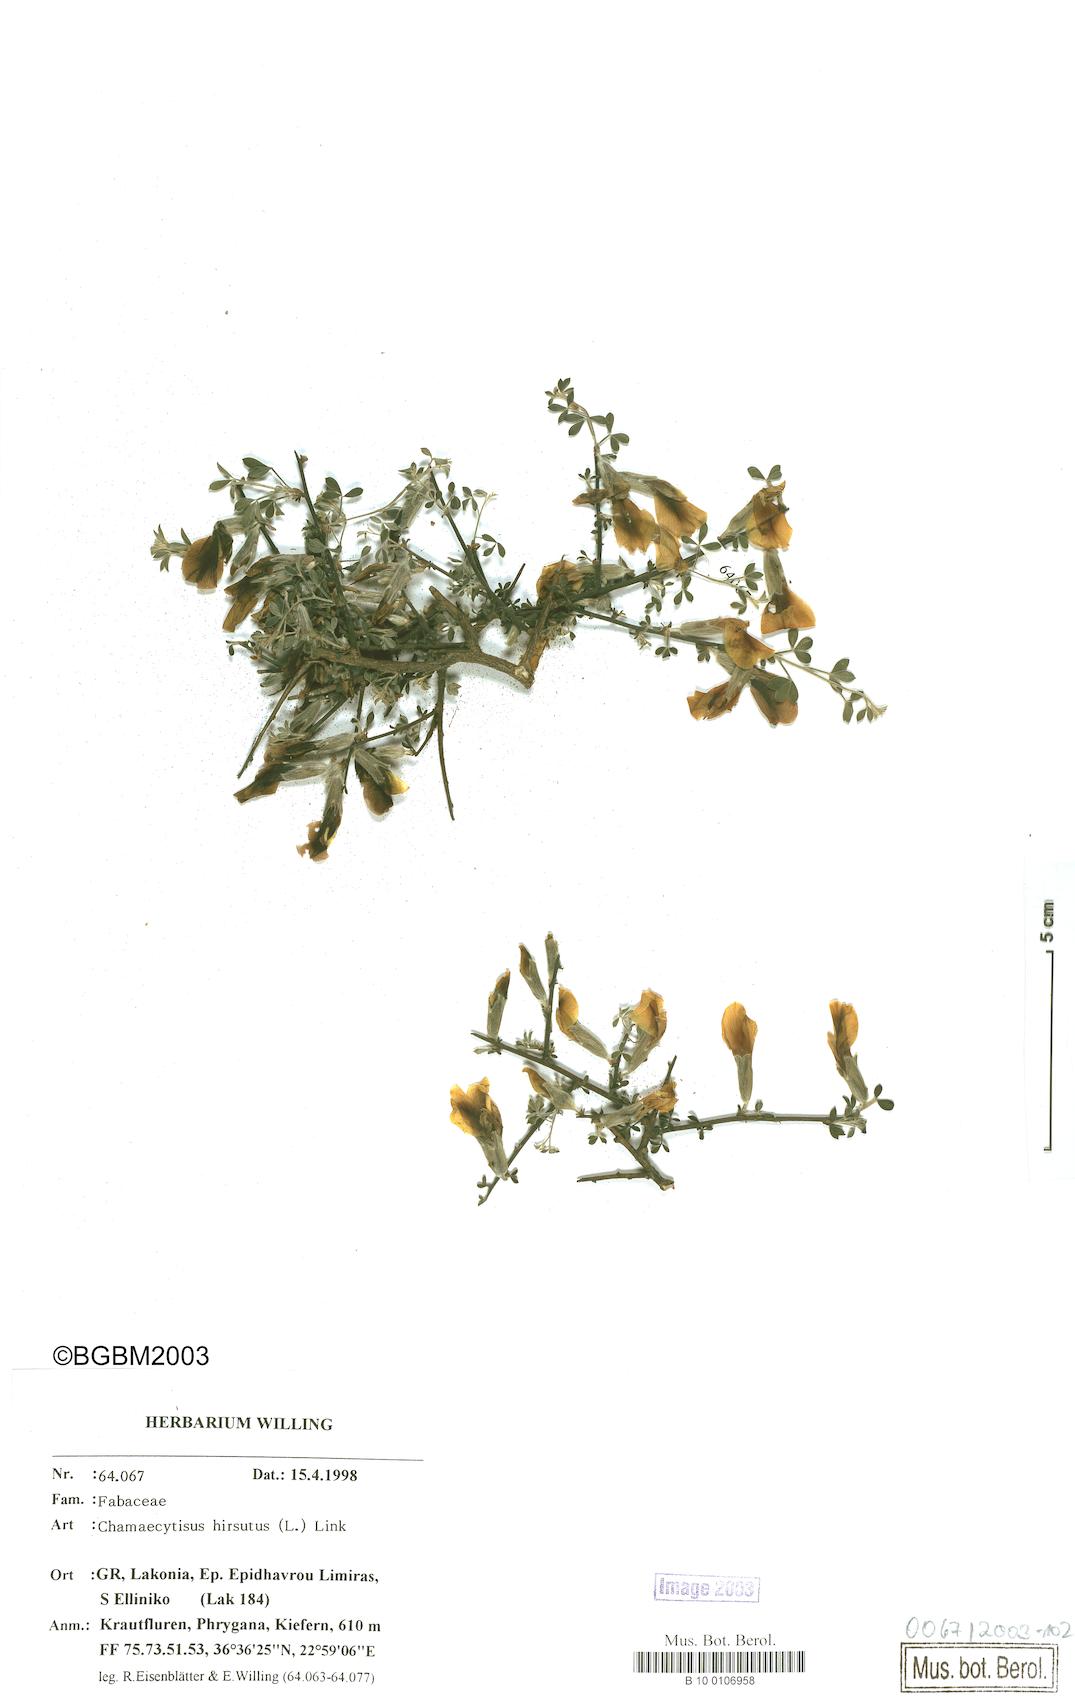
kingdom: Plantae
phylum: Tracheophyta
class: Magnoliopsida
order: Fabales
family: Fabaceae
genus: Chamaecytisus
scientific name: Chamaecytisus hirsutus
